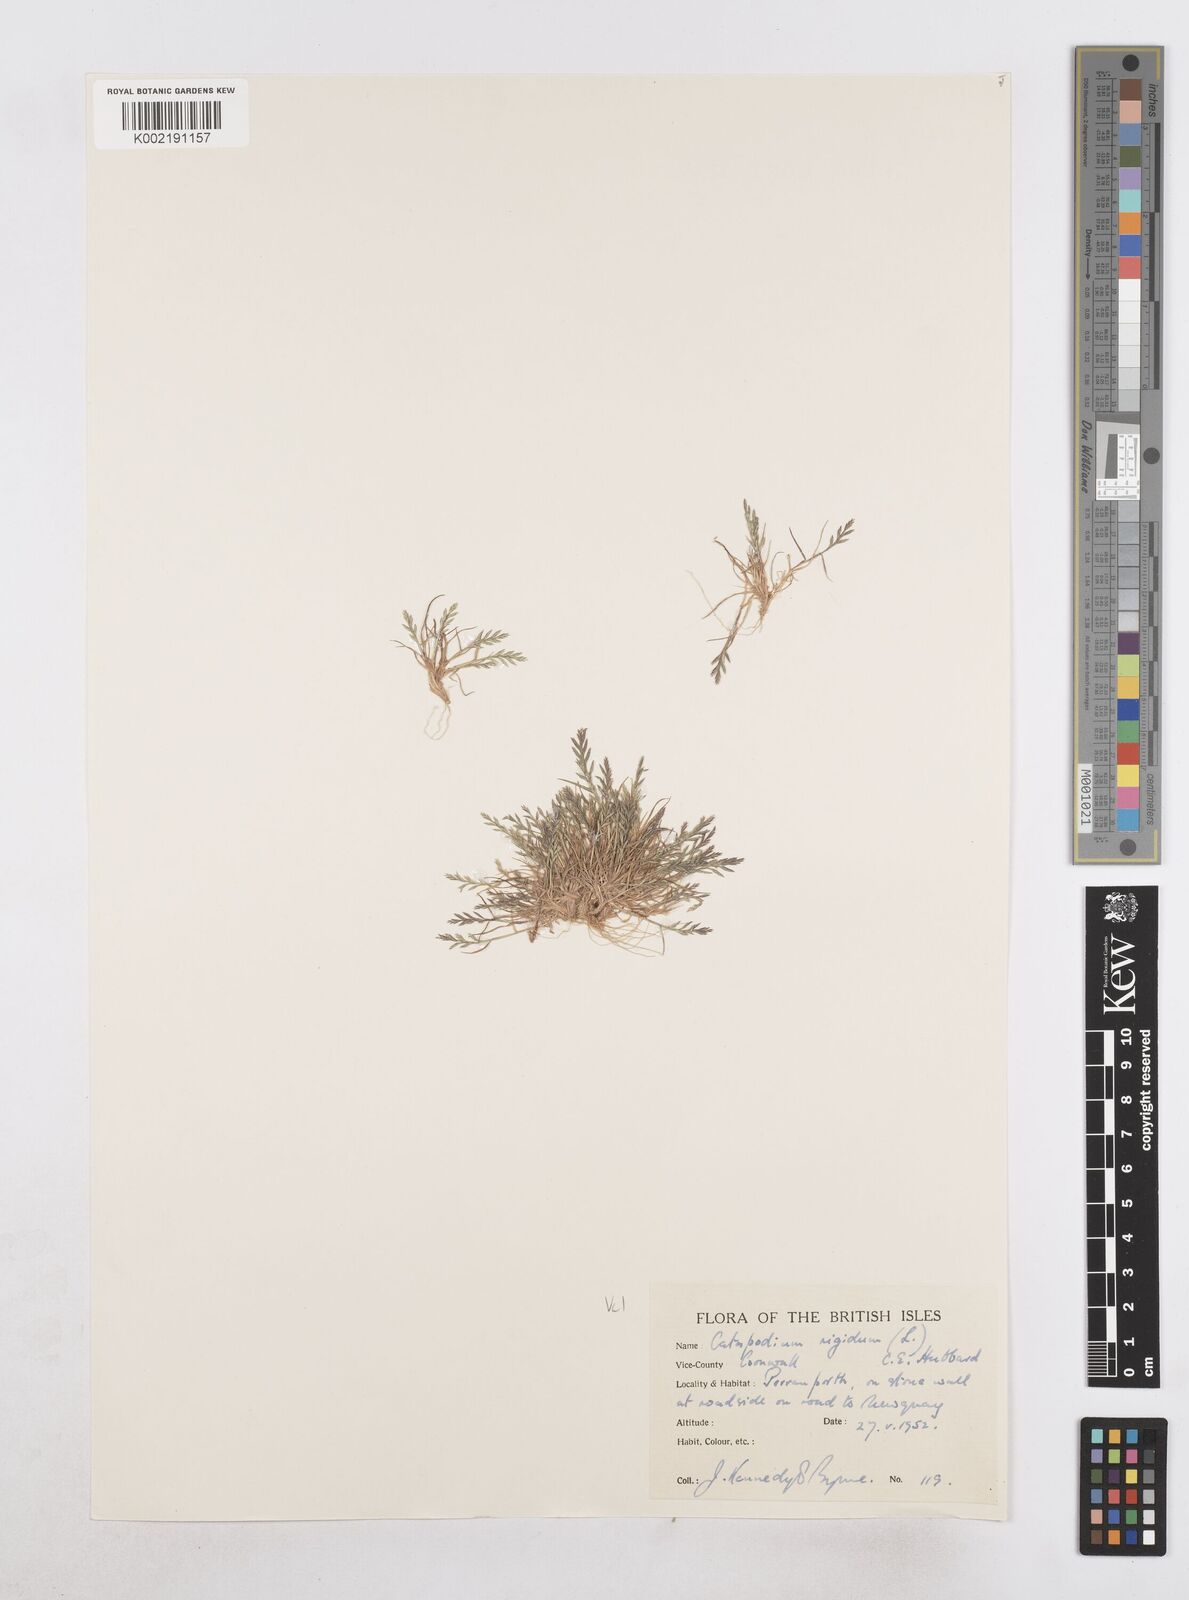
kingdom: Plantae
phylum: Tracheophyta
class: Liliopsida
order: Poales
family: Poaceae
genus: Catapodium
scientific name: Catapodium rigidum
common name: Fern-grass
